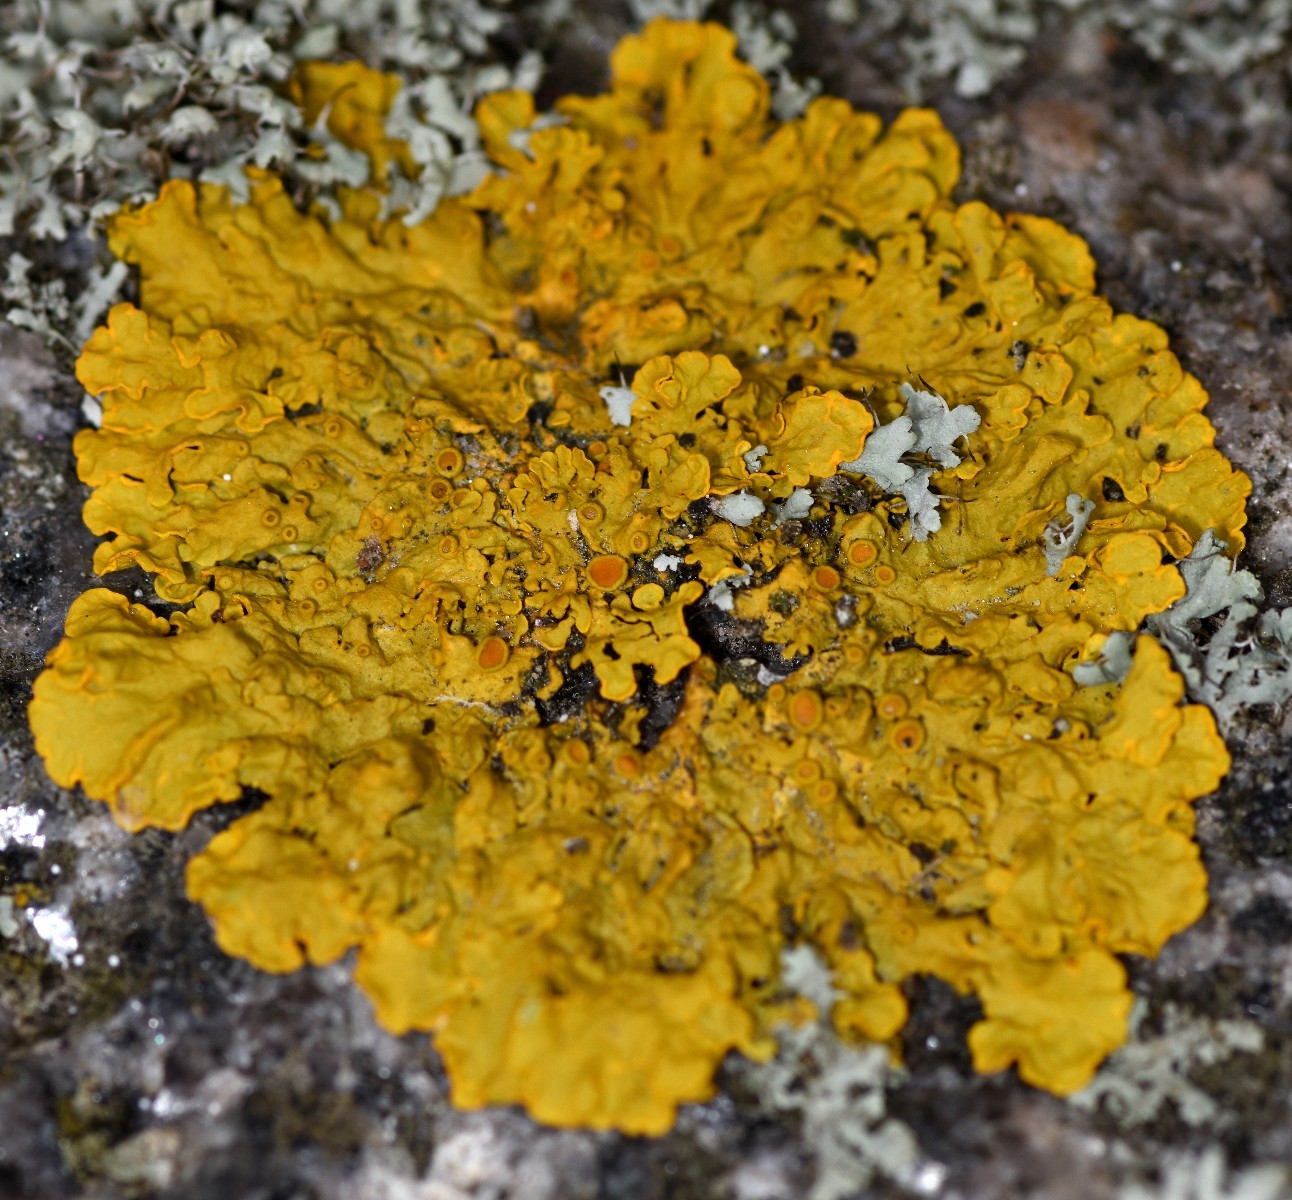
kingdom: Fungi
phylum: Ascomycota
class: Lecanoromycetes
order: Teloschistales
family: Teloschistaceae
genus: Xanthoria
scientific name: Xanthoria parietina
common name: almindelig væggelav
